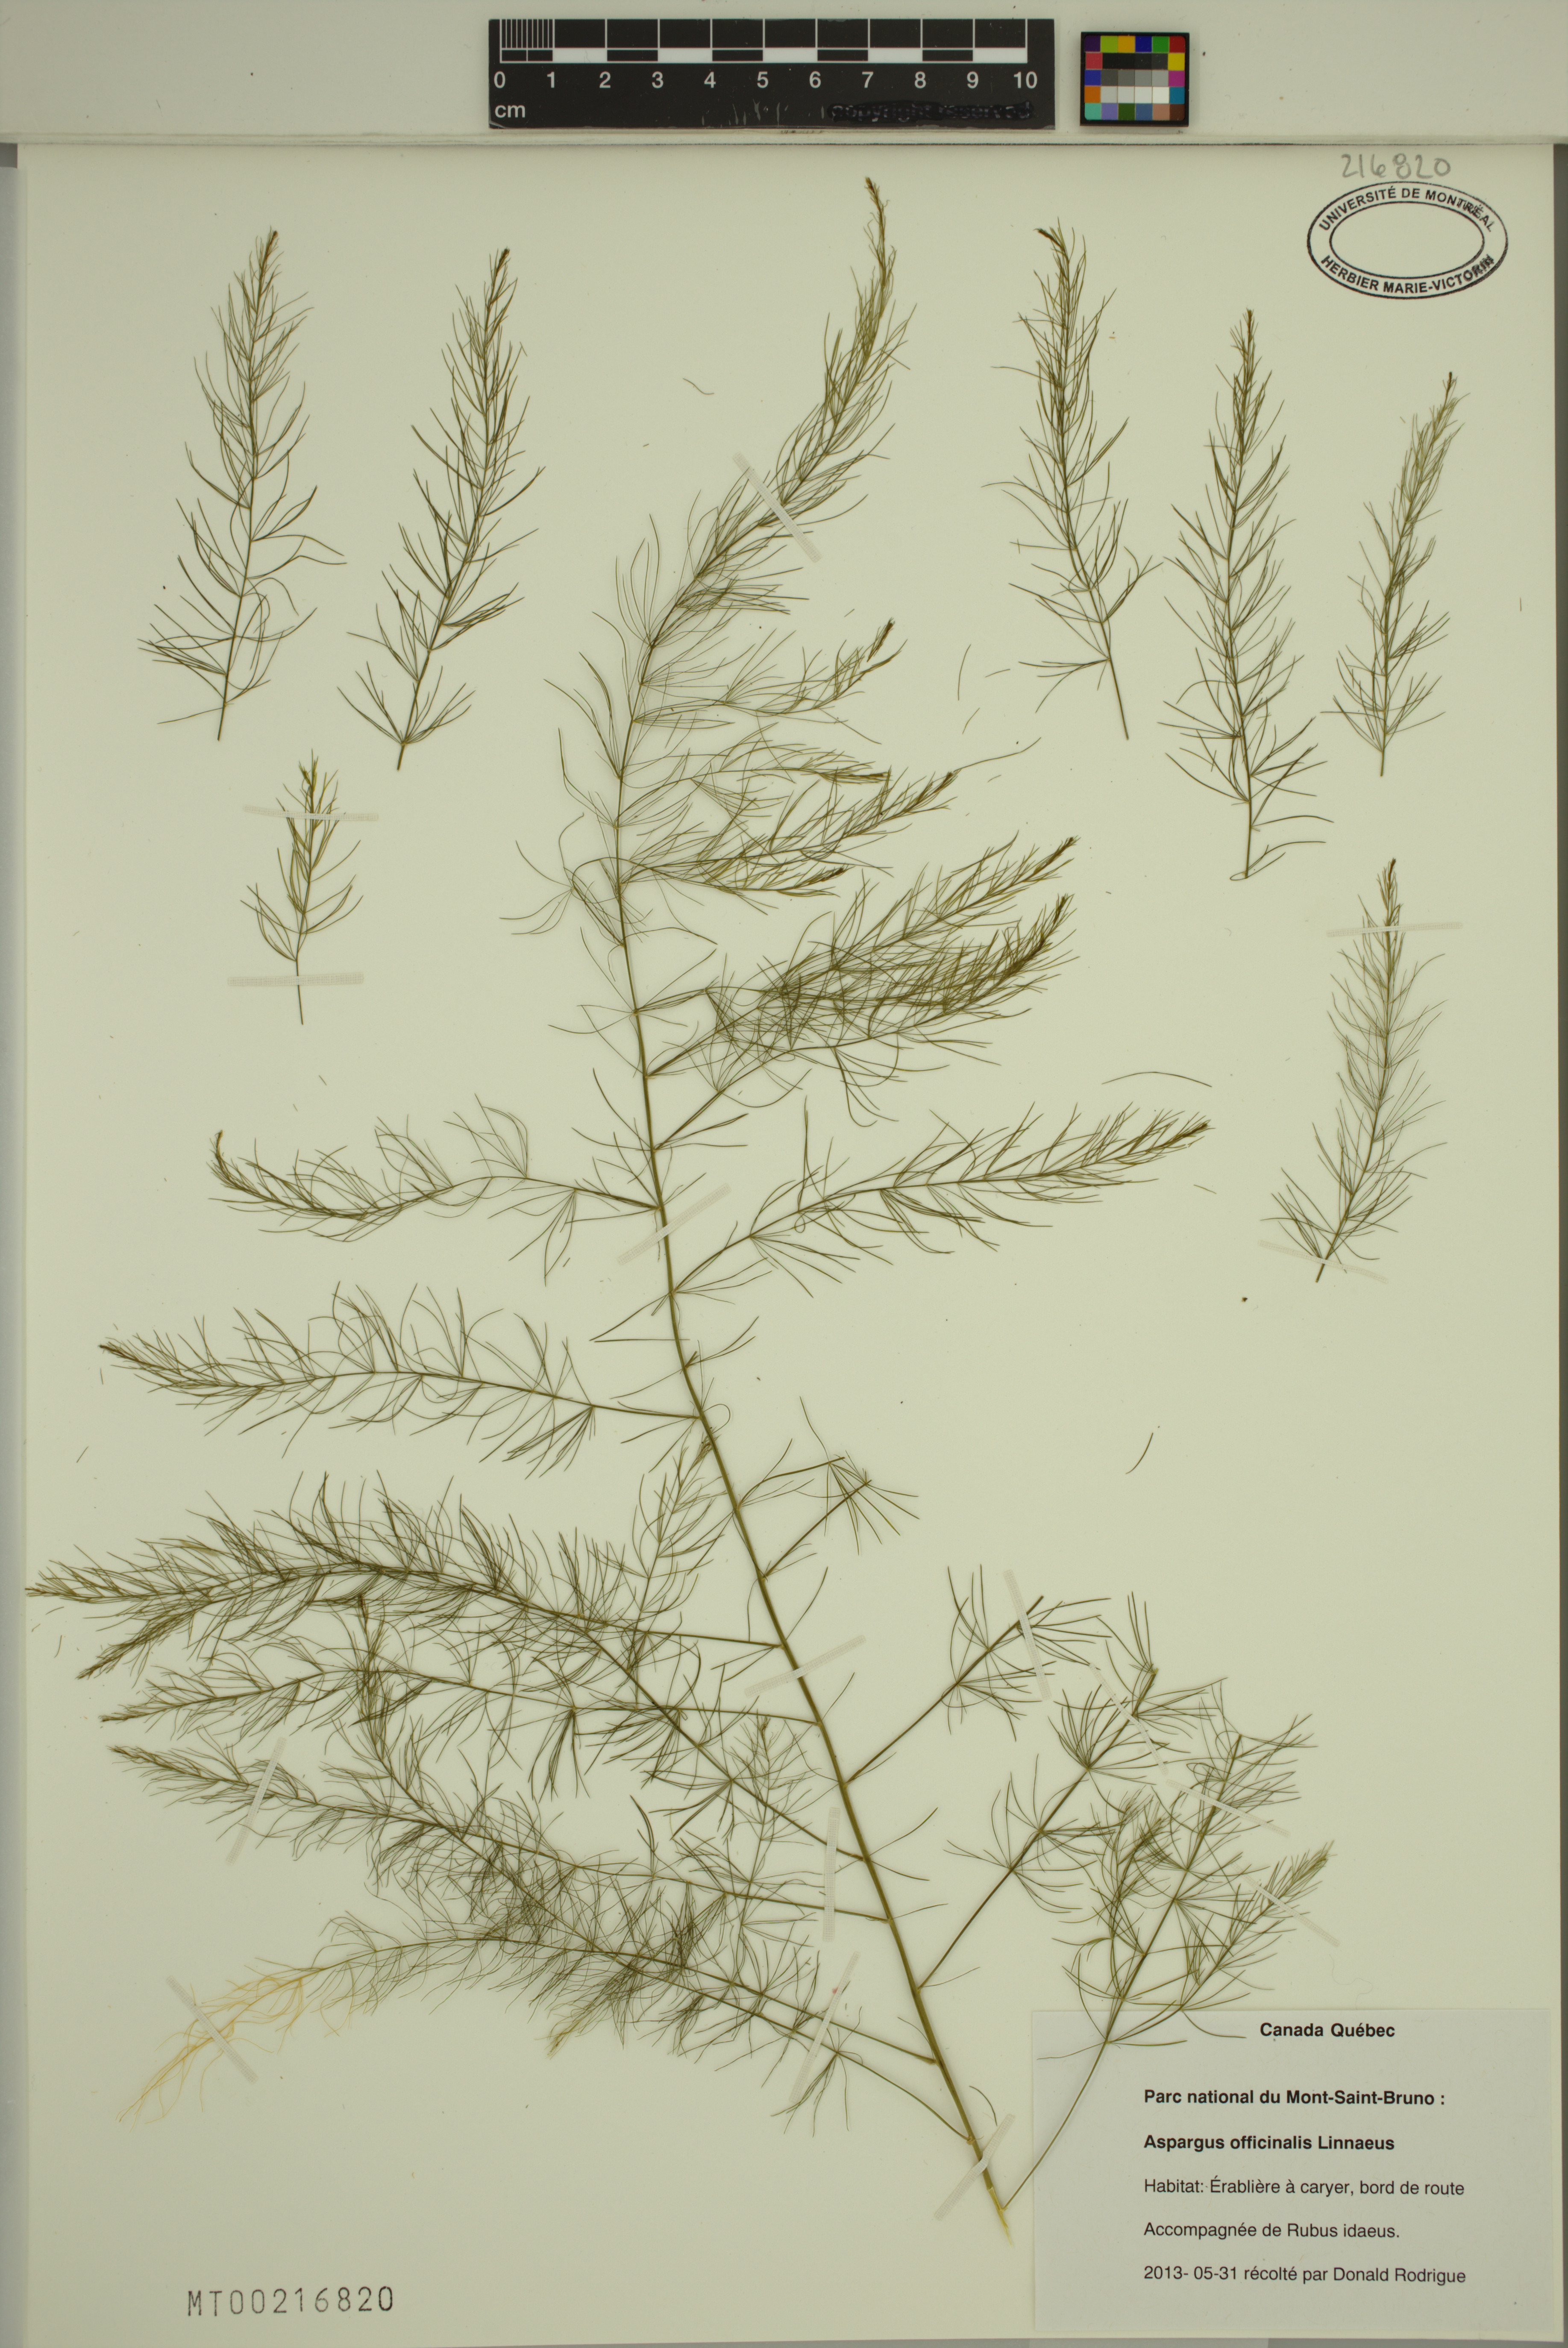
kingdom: Plantae
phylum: Tracheophyta
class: Liliopsida
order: Asparagales
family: Asparagaceae
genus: Asparagus
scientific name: Asparagus officinalis
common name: Garden asparagus
